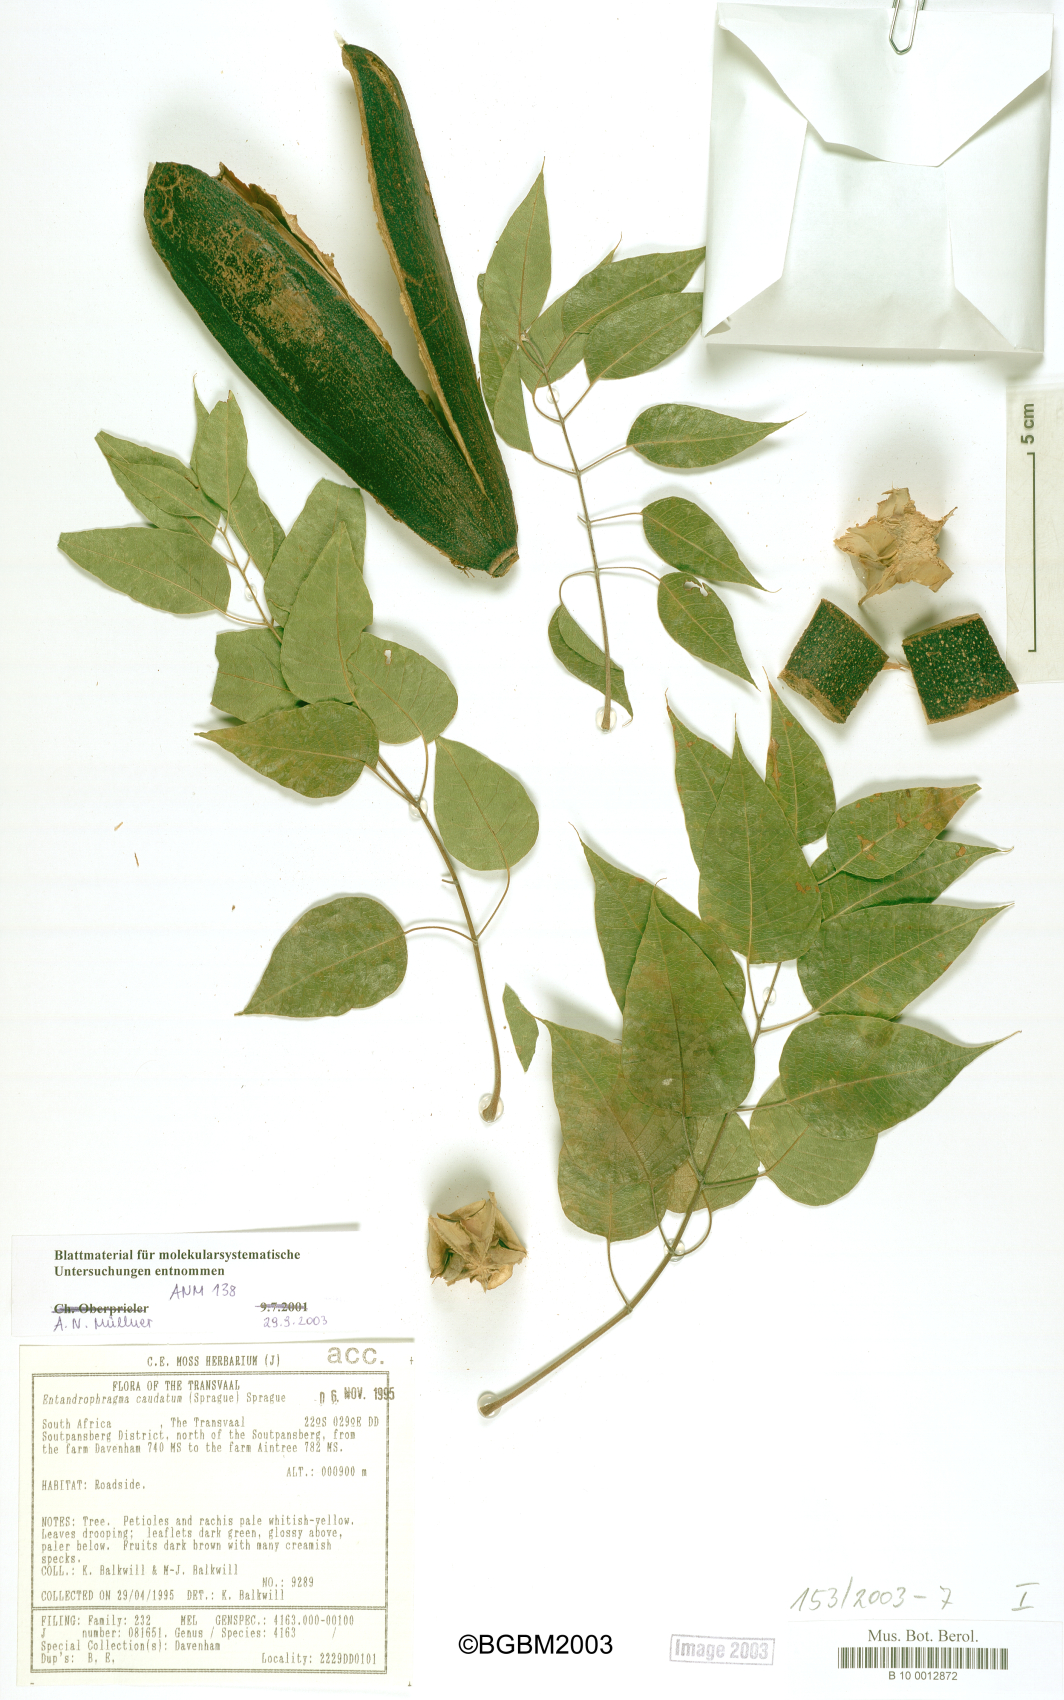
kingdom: Plantae
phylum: Tracheophyta
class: Magnoliopsida
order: Sapindales
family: Meliaceae
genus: Entandrophragma
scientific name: Entandrophragma caudatum
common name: Mountain-mahogany
